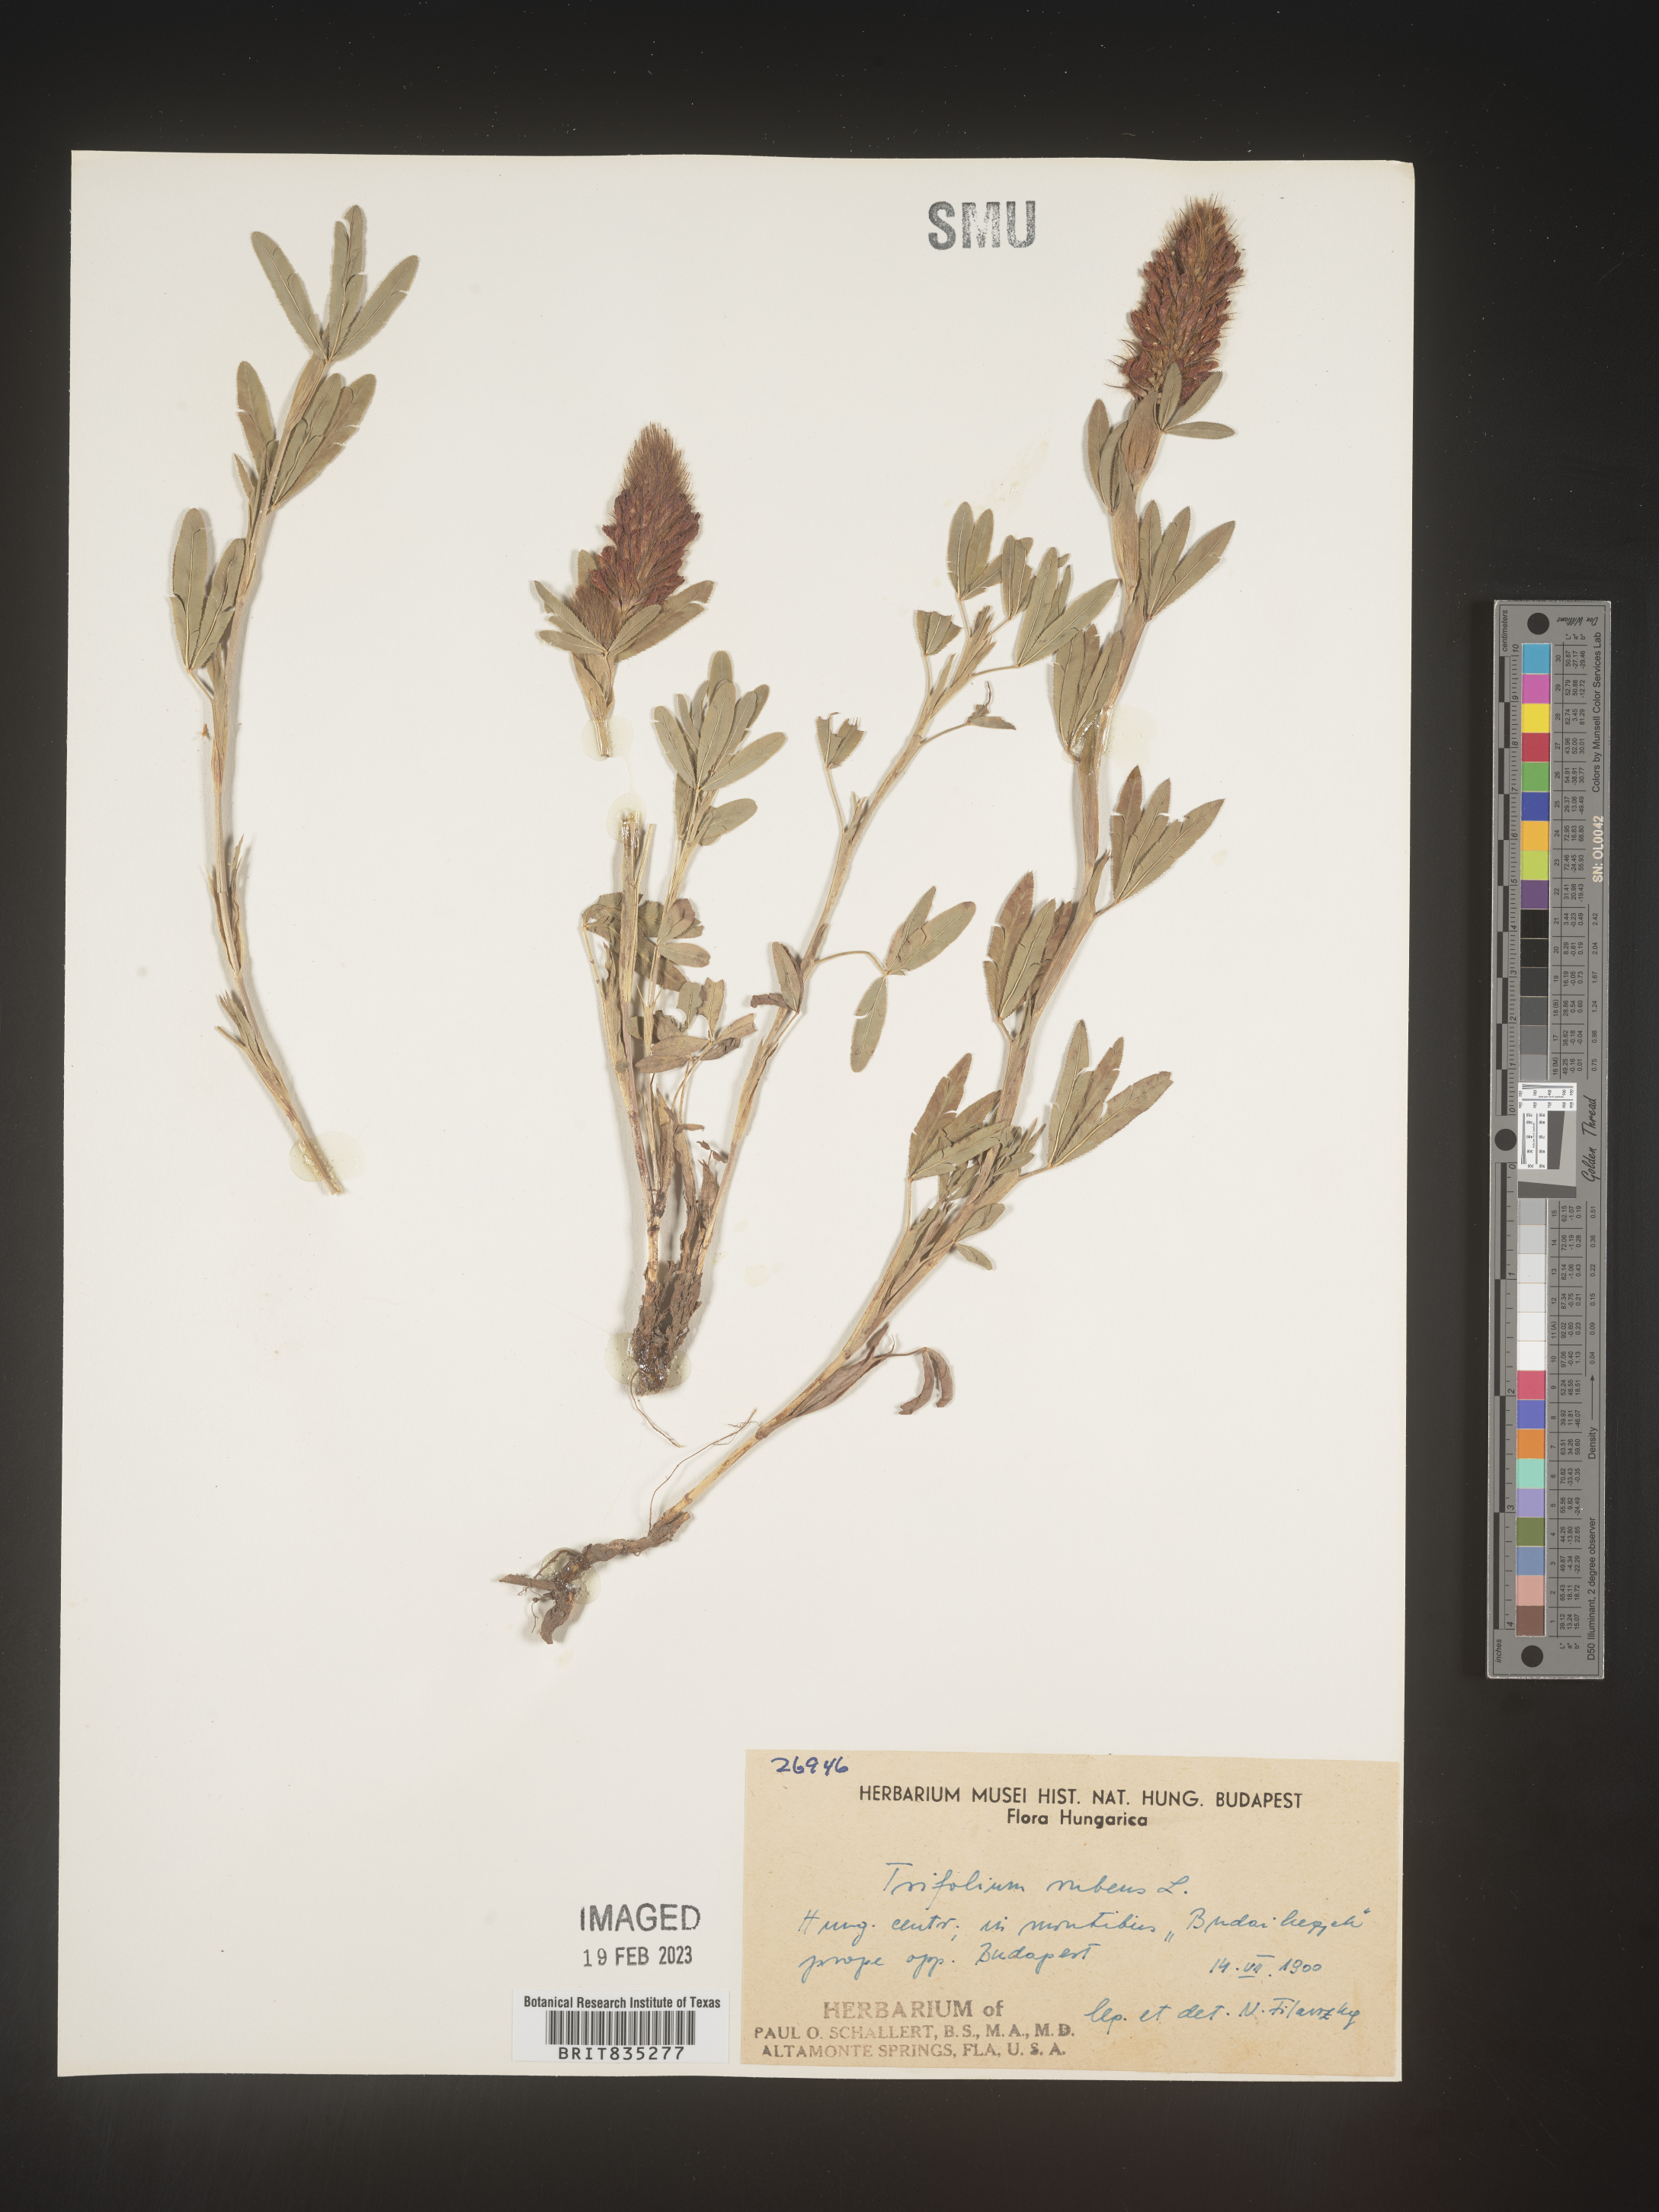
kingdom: Plantae
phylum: Tracheophyta
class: Magnoliopsida
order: Fabales
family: Fabaceae
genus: Trifolium
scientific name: Trifolium
